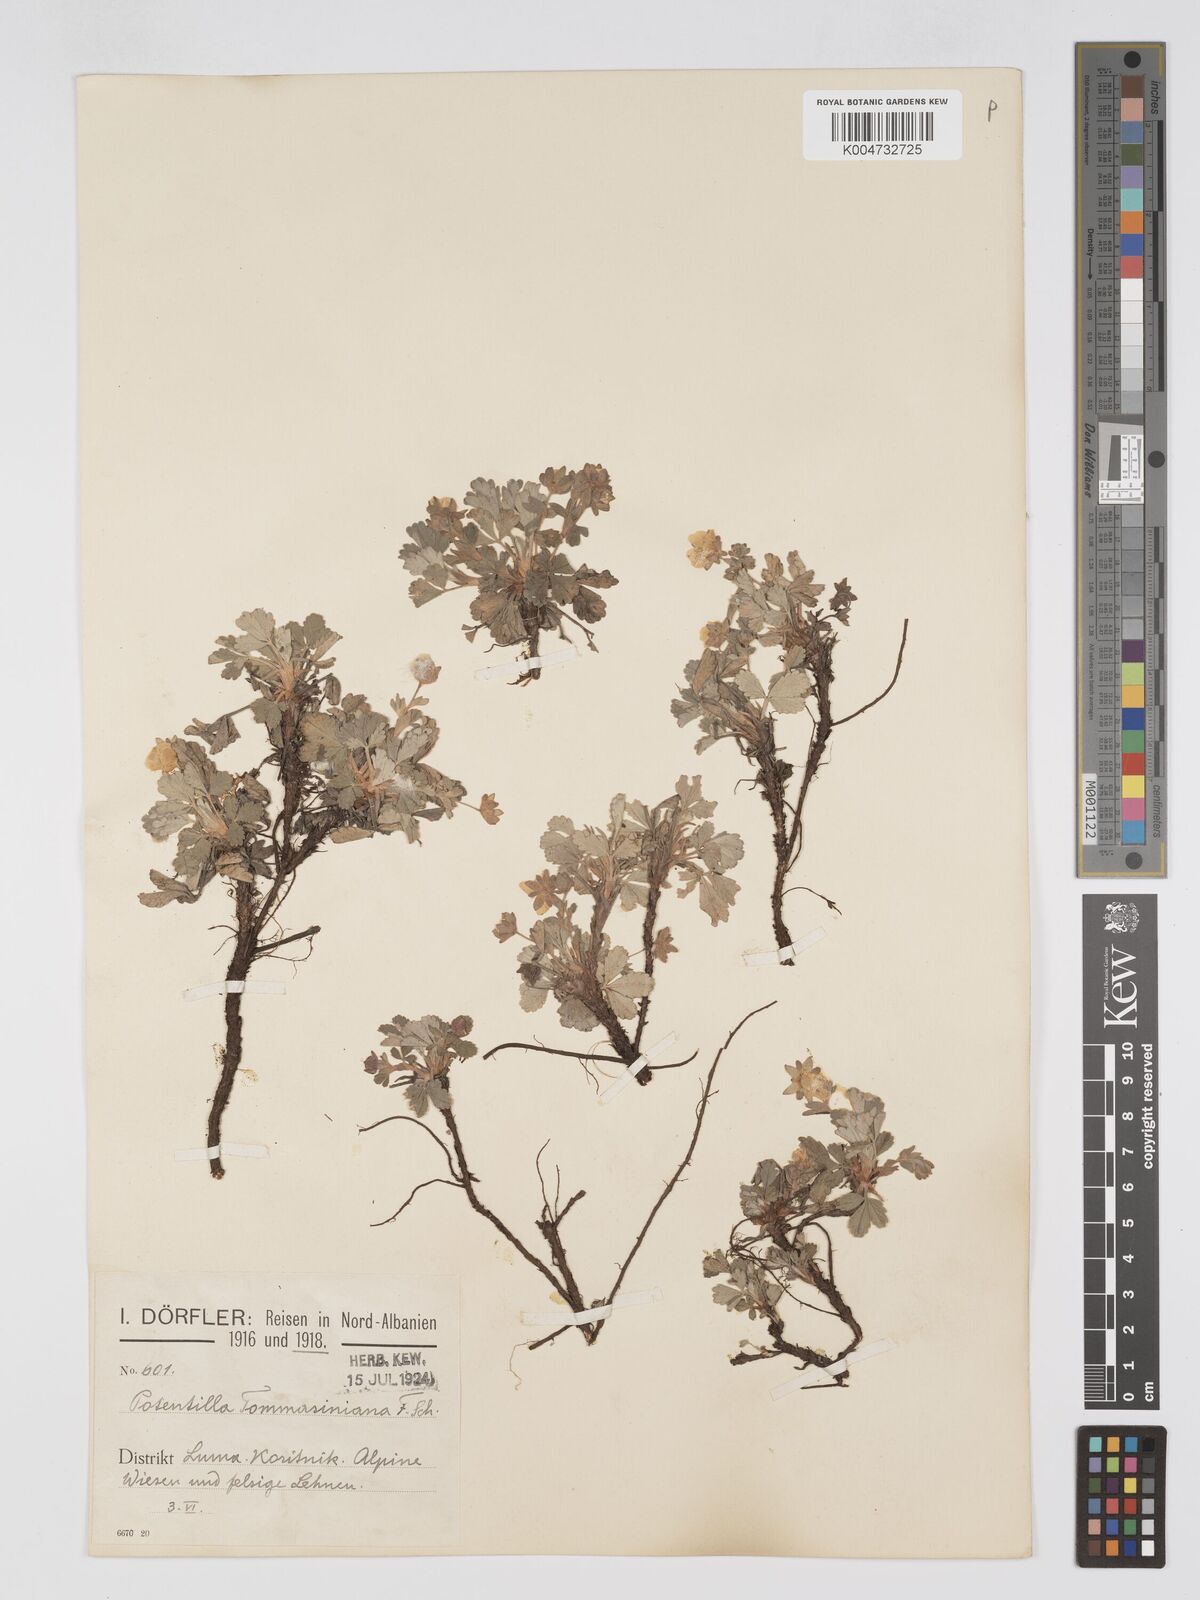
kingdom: Plantae
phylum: Tracheophyta
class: Magnoliopsida
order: Rosales
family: Rosaceae
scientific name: Rosaceae
